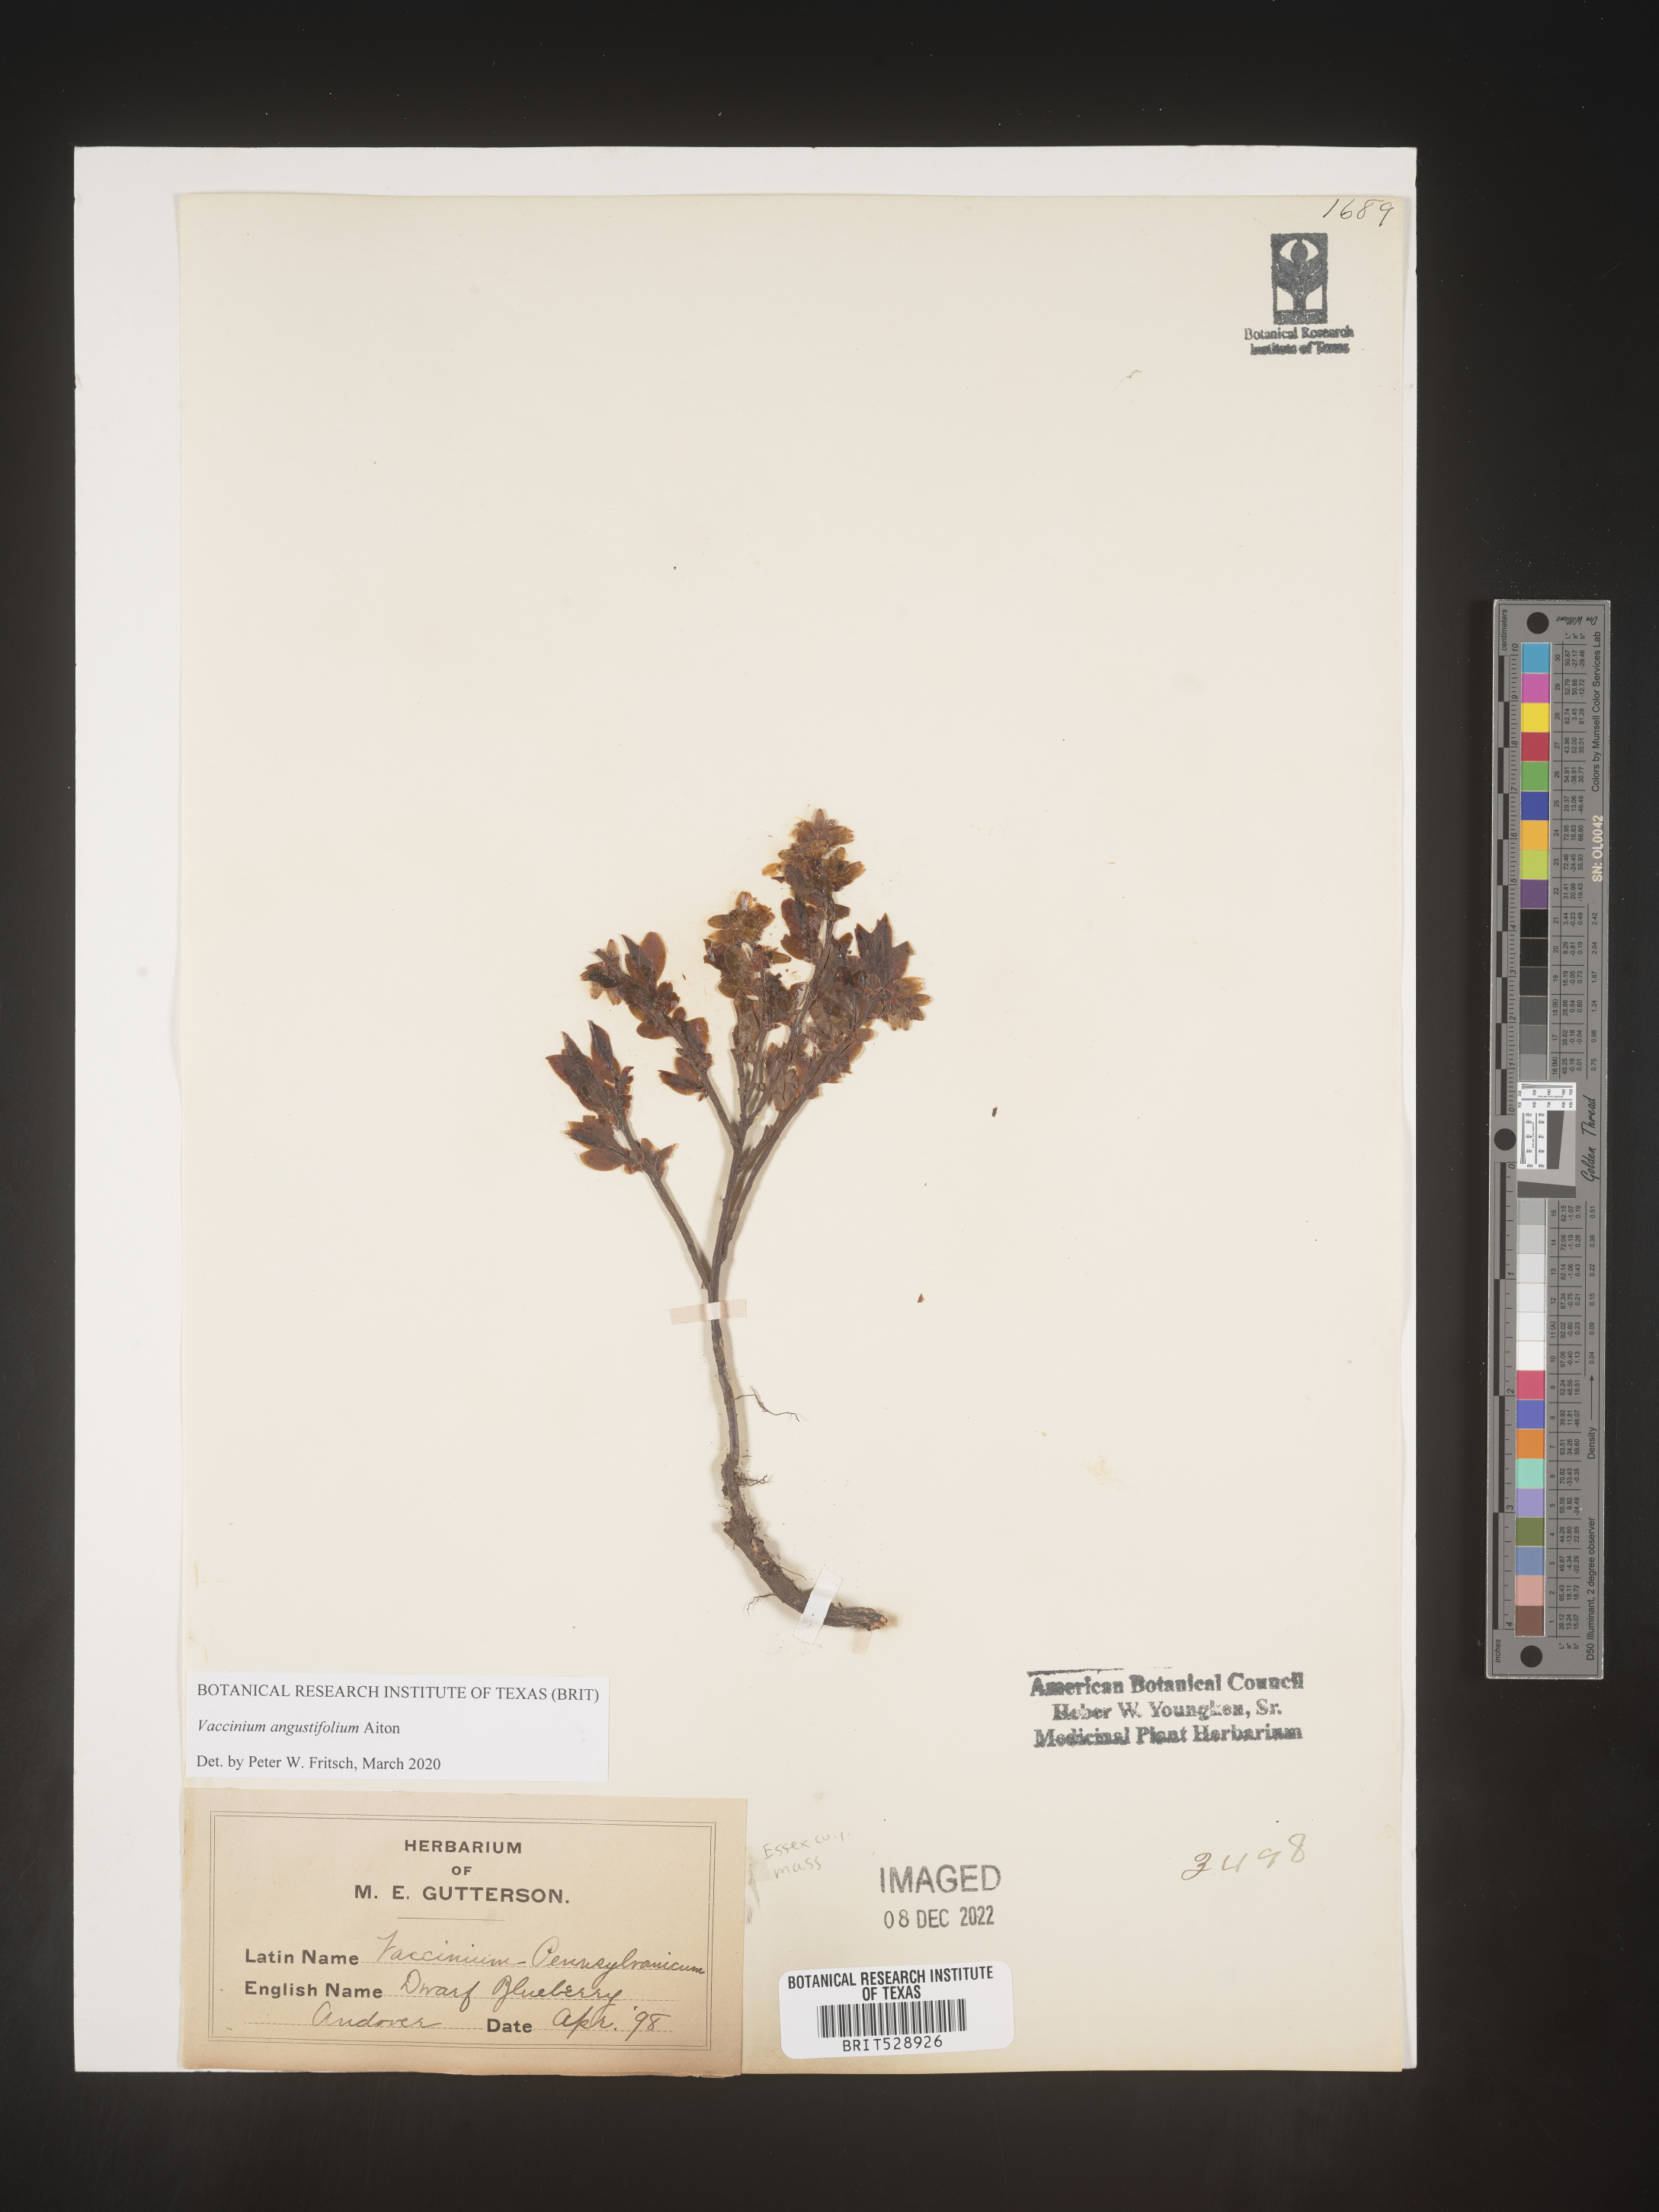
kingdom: Plantae
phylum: Tracheophyta
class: Magnoliopsida
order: Ericales
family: Ericaceae
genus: Vaccinium
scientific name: Vaccinium angustifolium
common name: Early lowbush blueberry
